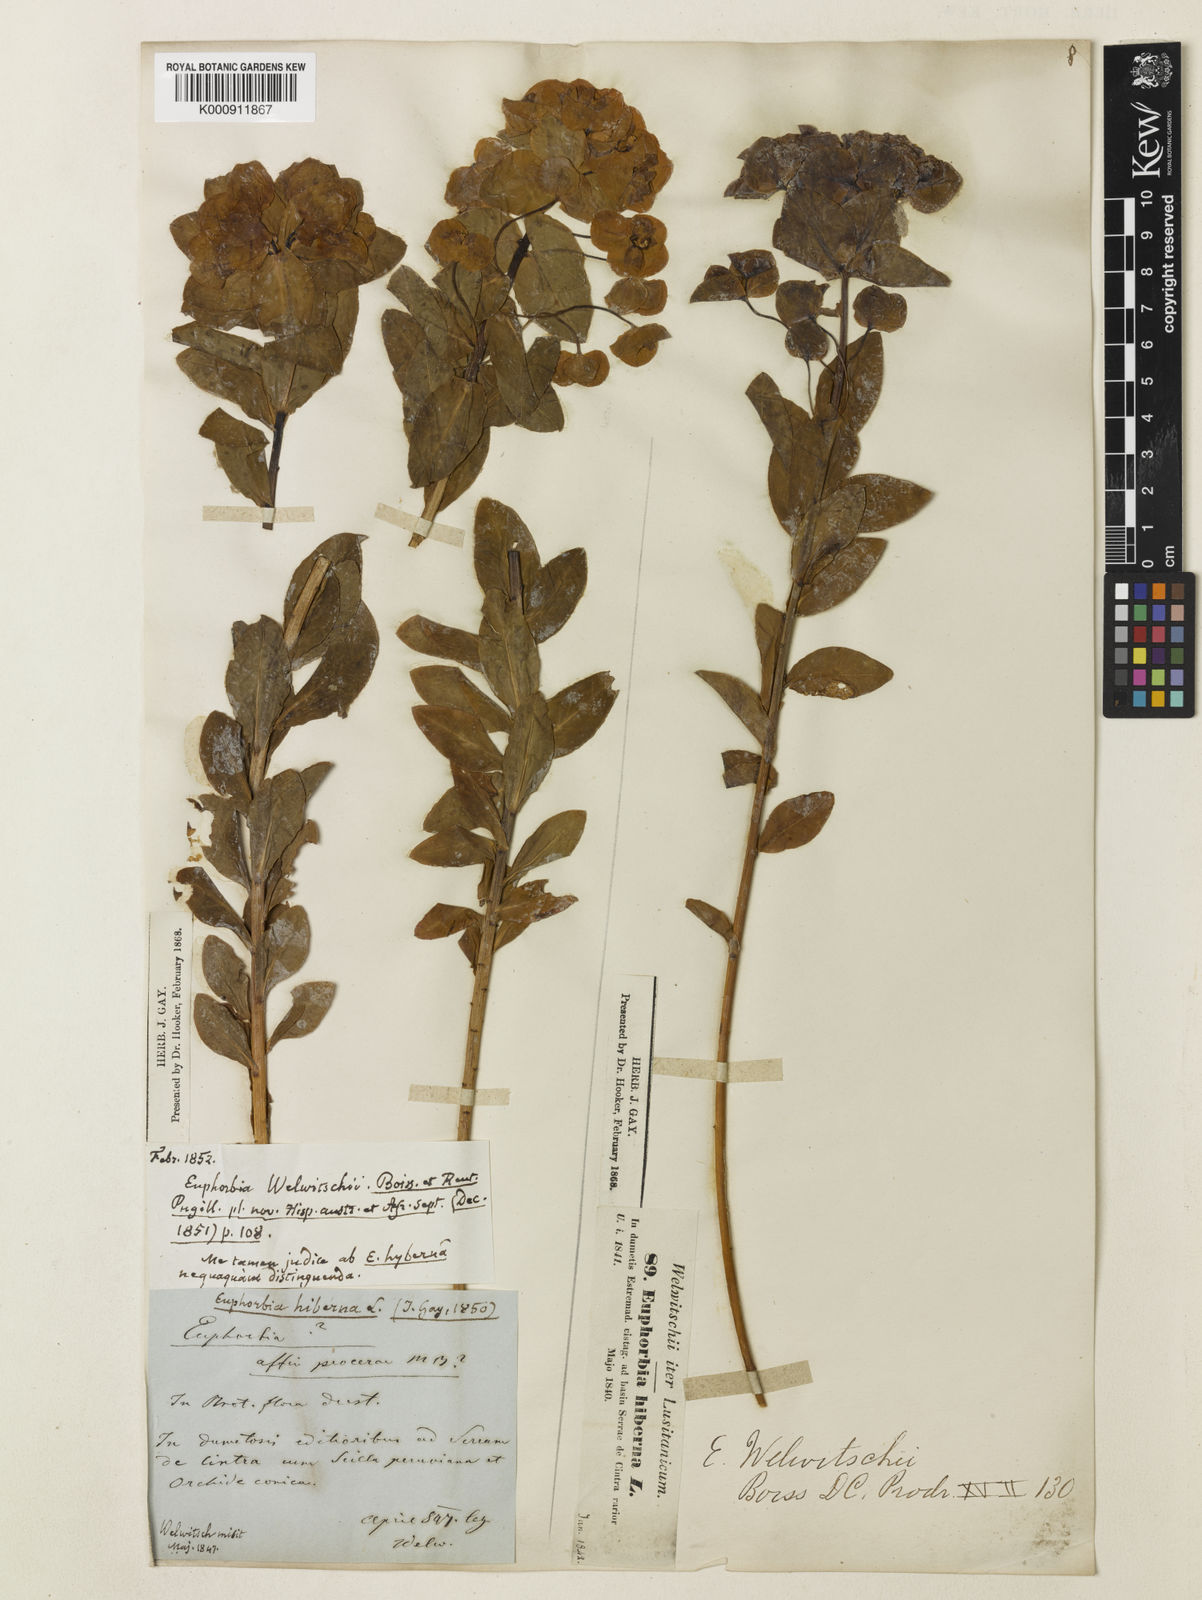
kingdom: Plantae
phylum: Tracheophyta
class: Magnoliopsida
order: Malpighiales
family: Euphorbiaceae
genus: Euphorbia
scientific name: Euphorbia paniculata
